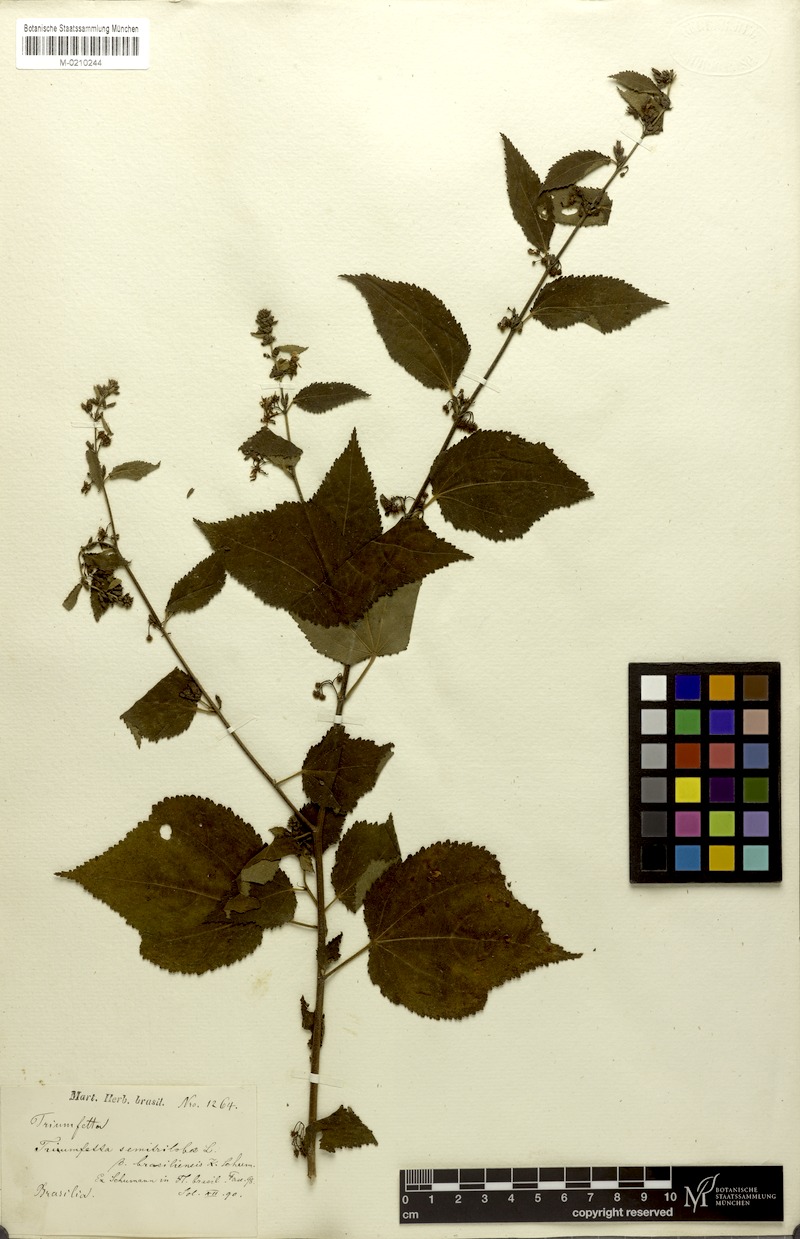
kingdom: Plantae
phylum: Tracheophyta
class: Magnoliopsida
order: Malvales
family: Malvaceae
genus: Triumfetta
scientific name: Triumfetta semitriloba
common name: Sacramento burbark
